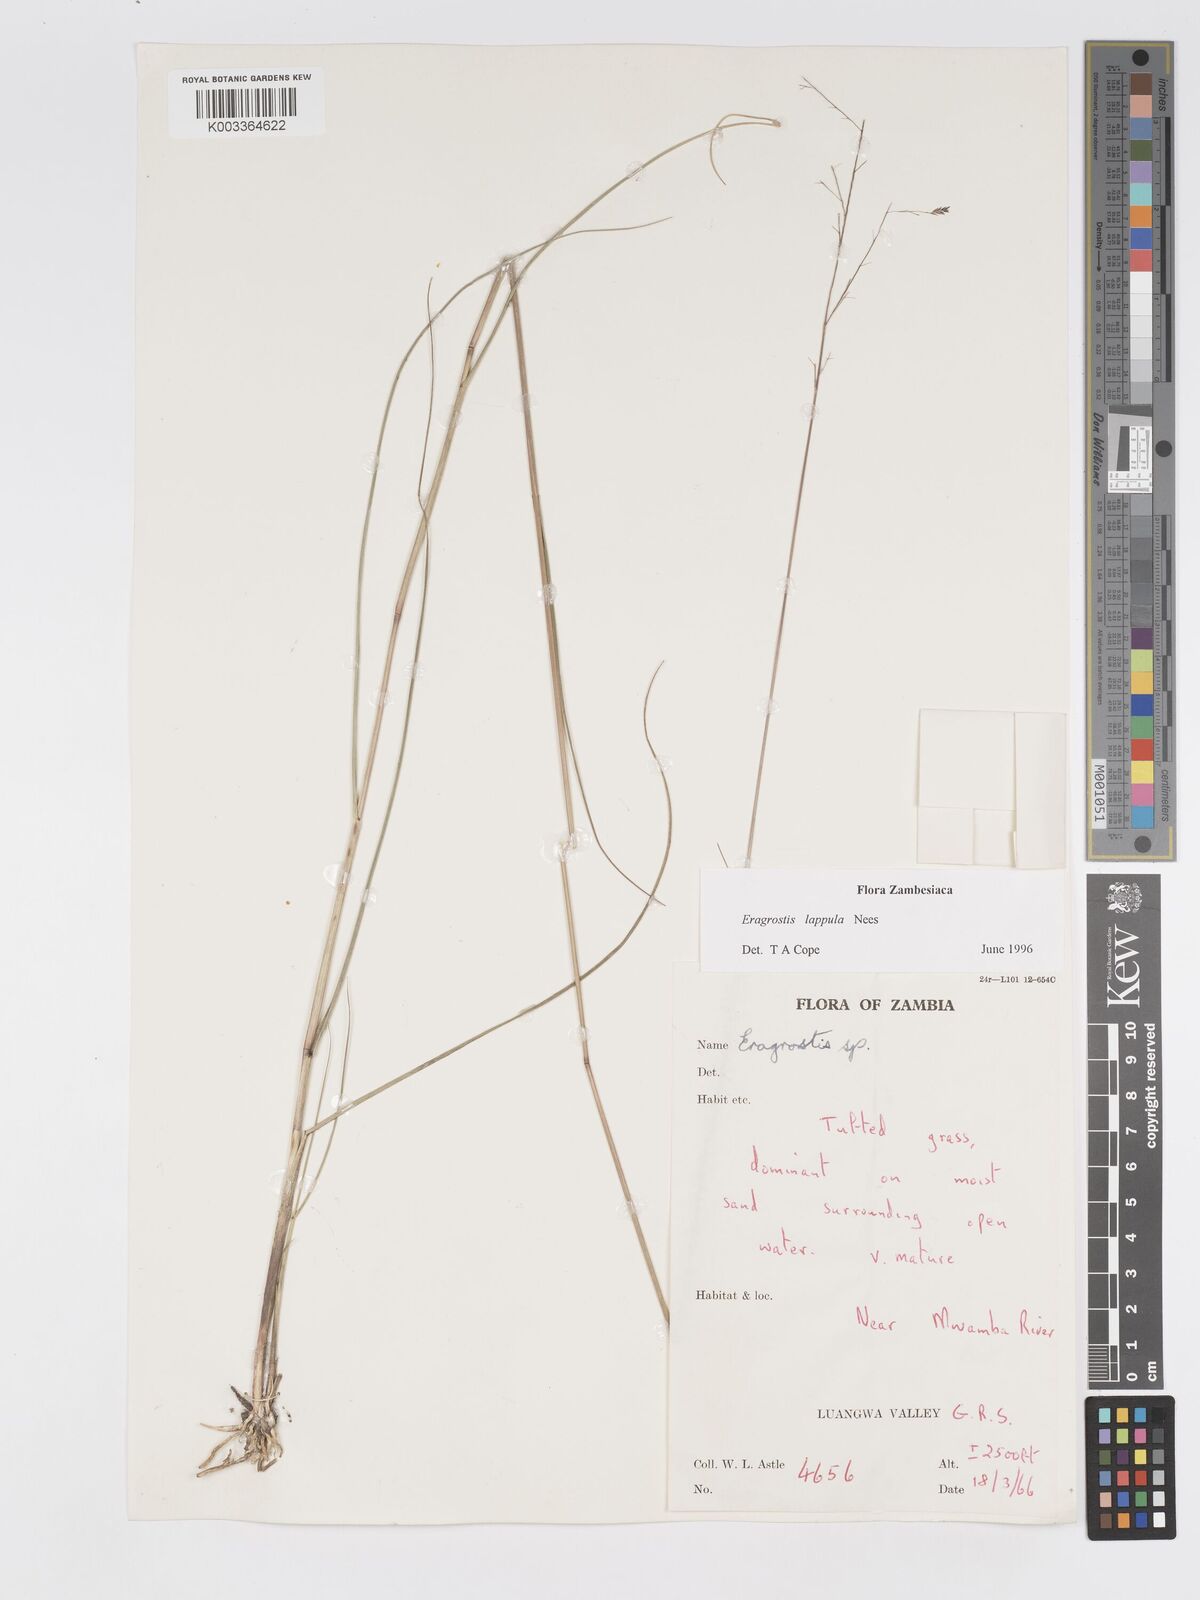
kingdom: Plantae
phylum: Tracheophyta
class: Liliopsida
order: Poales
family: Poaceae
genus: Eragrostis
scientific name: Eragrostis lappula
